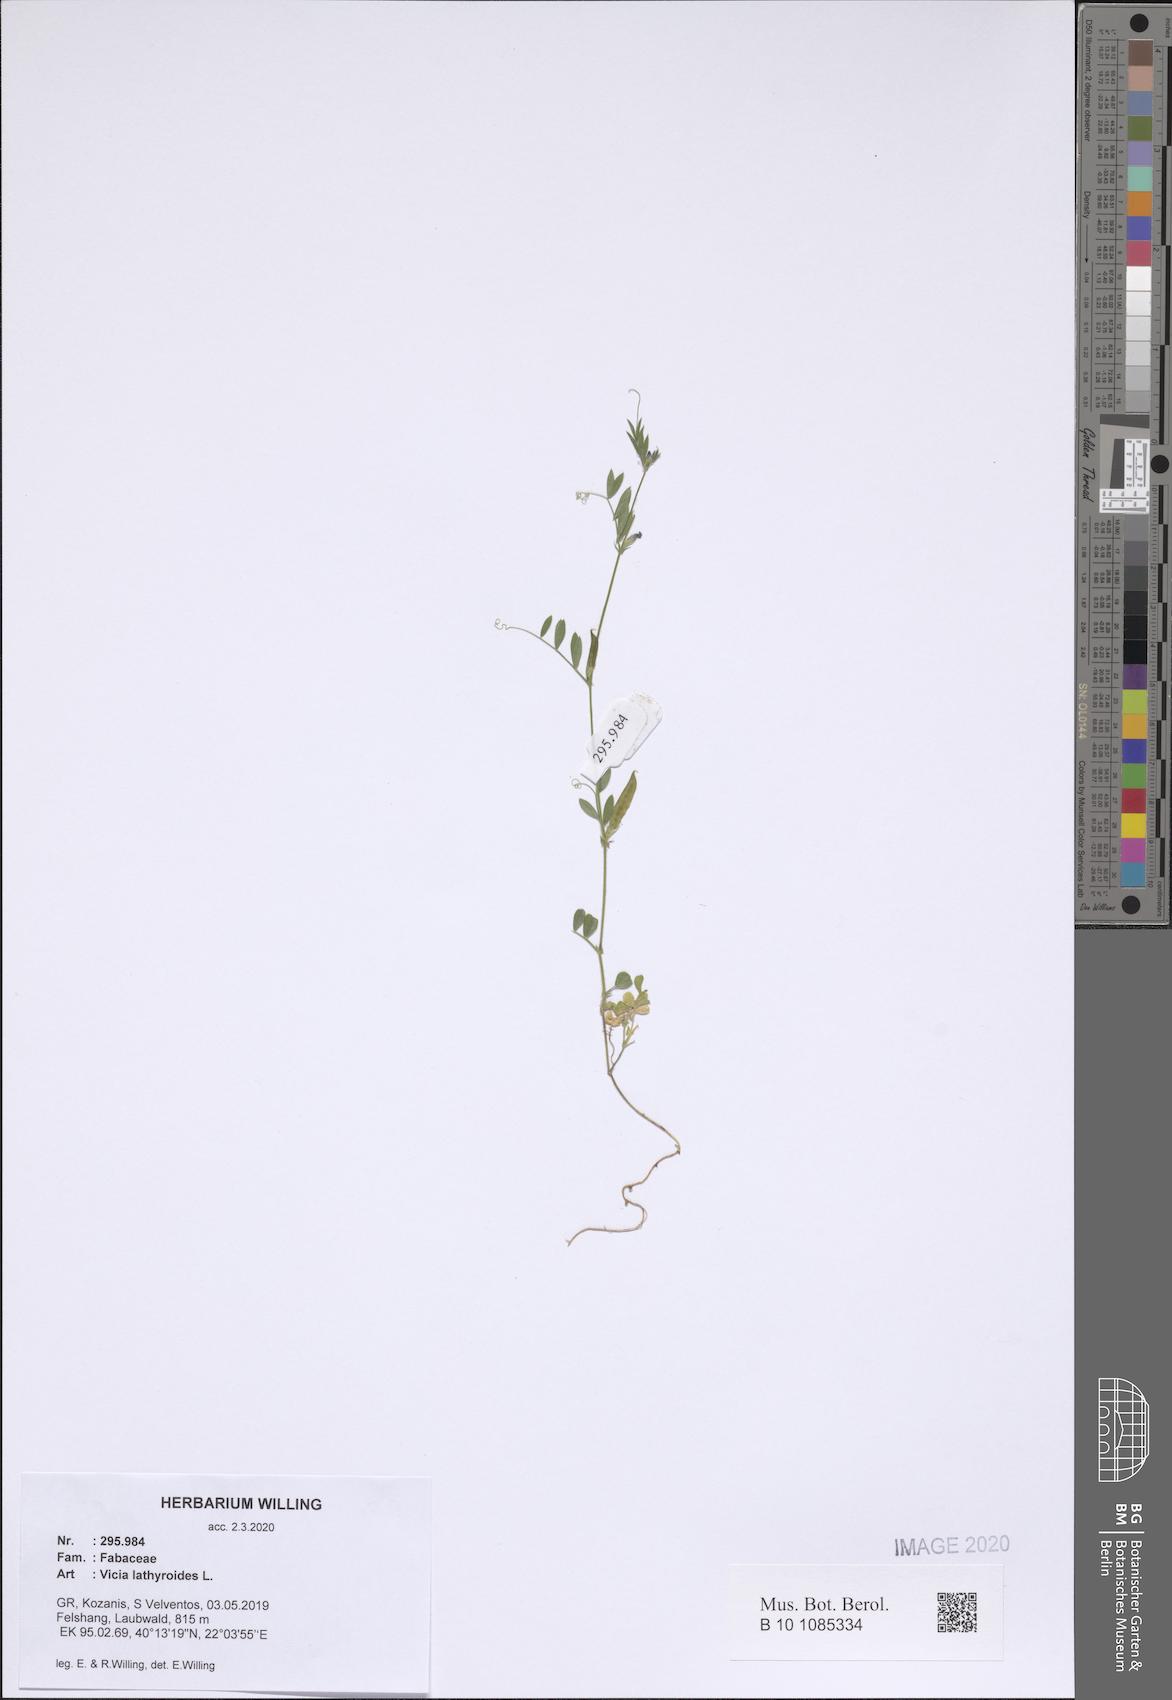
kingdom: Plantae
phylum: Tracheophyta
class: Magnoliopsida
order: Fabales
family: Fabaceae
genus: Vicia
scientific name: Vicia lathyroides
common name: Spring vetch
